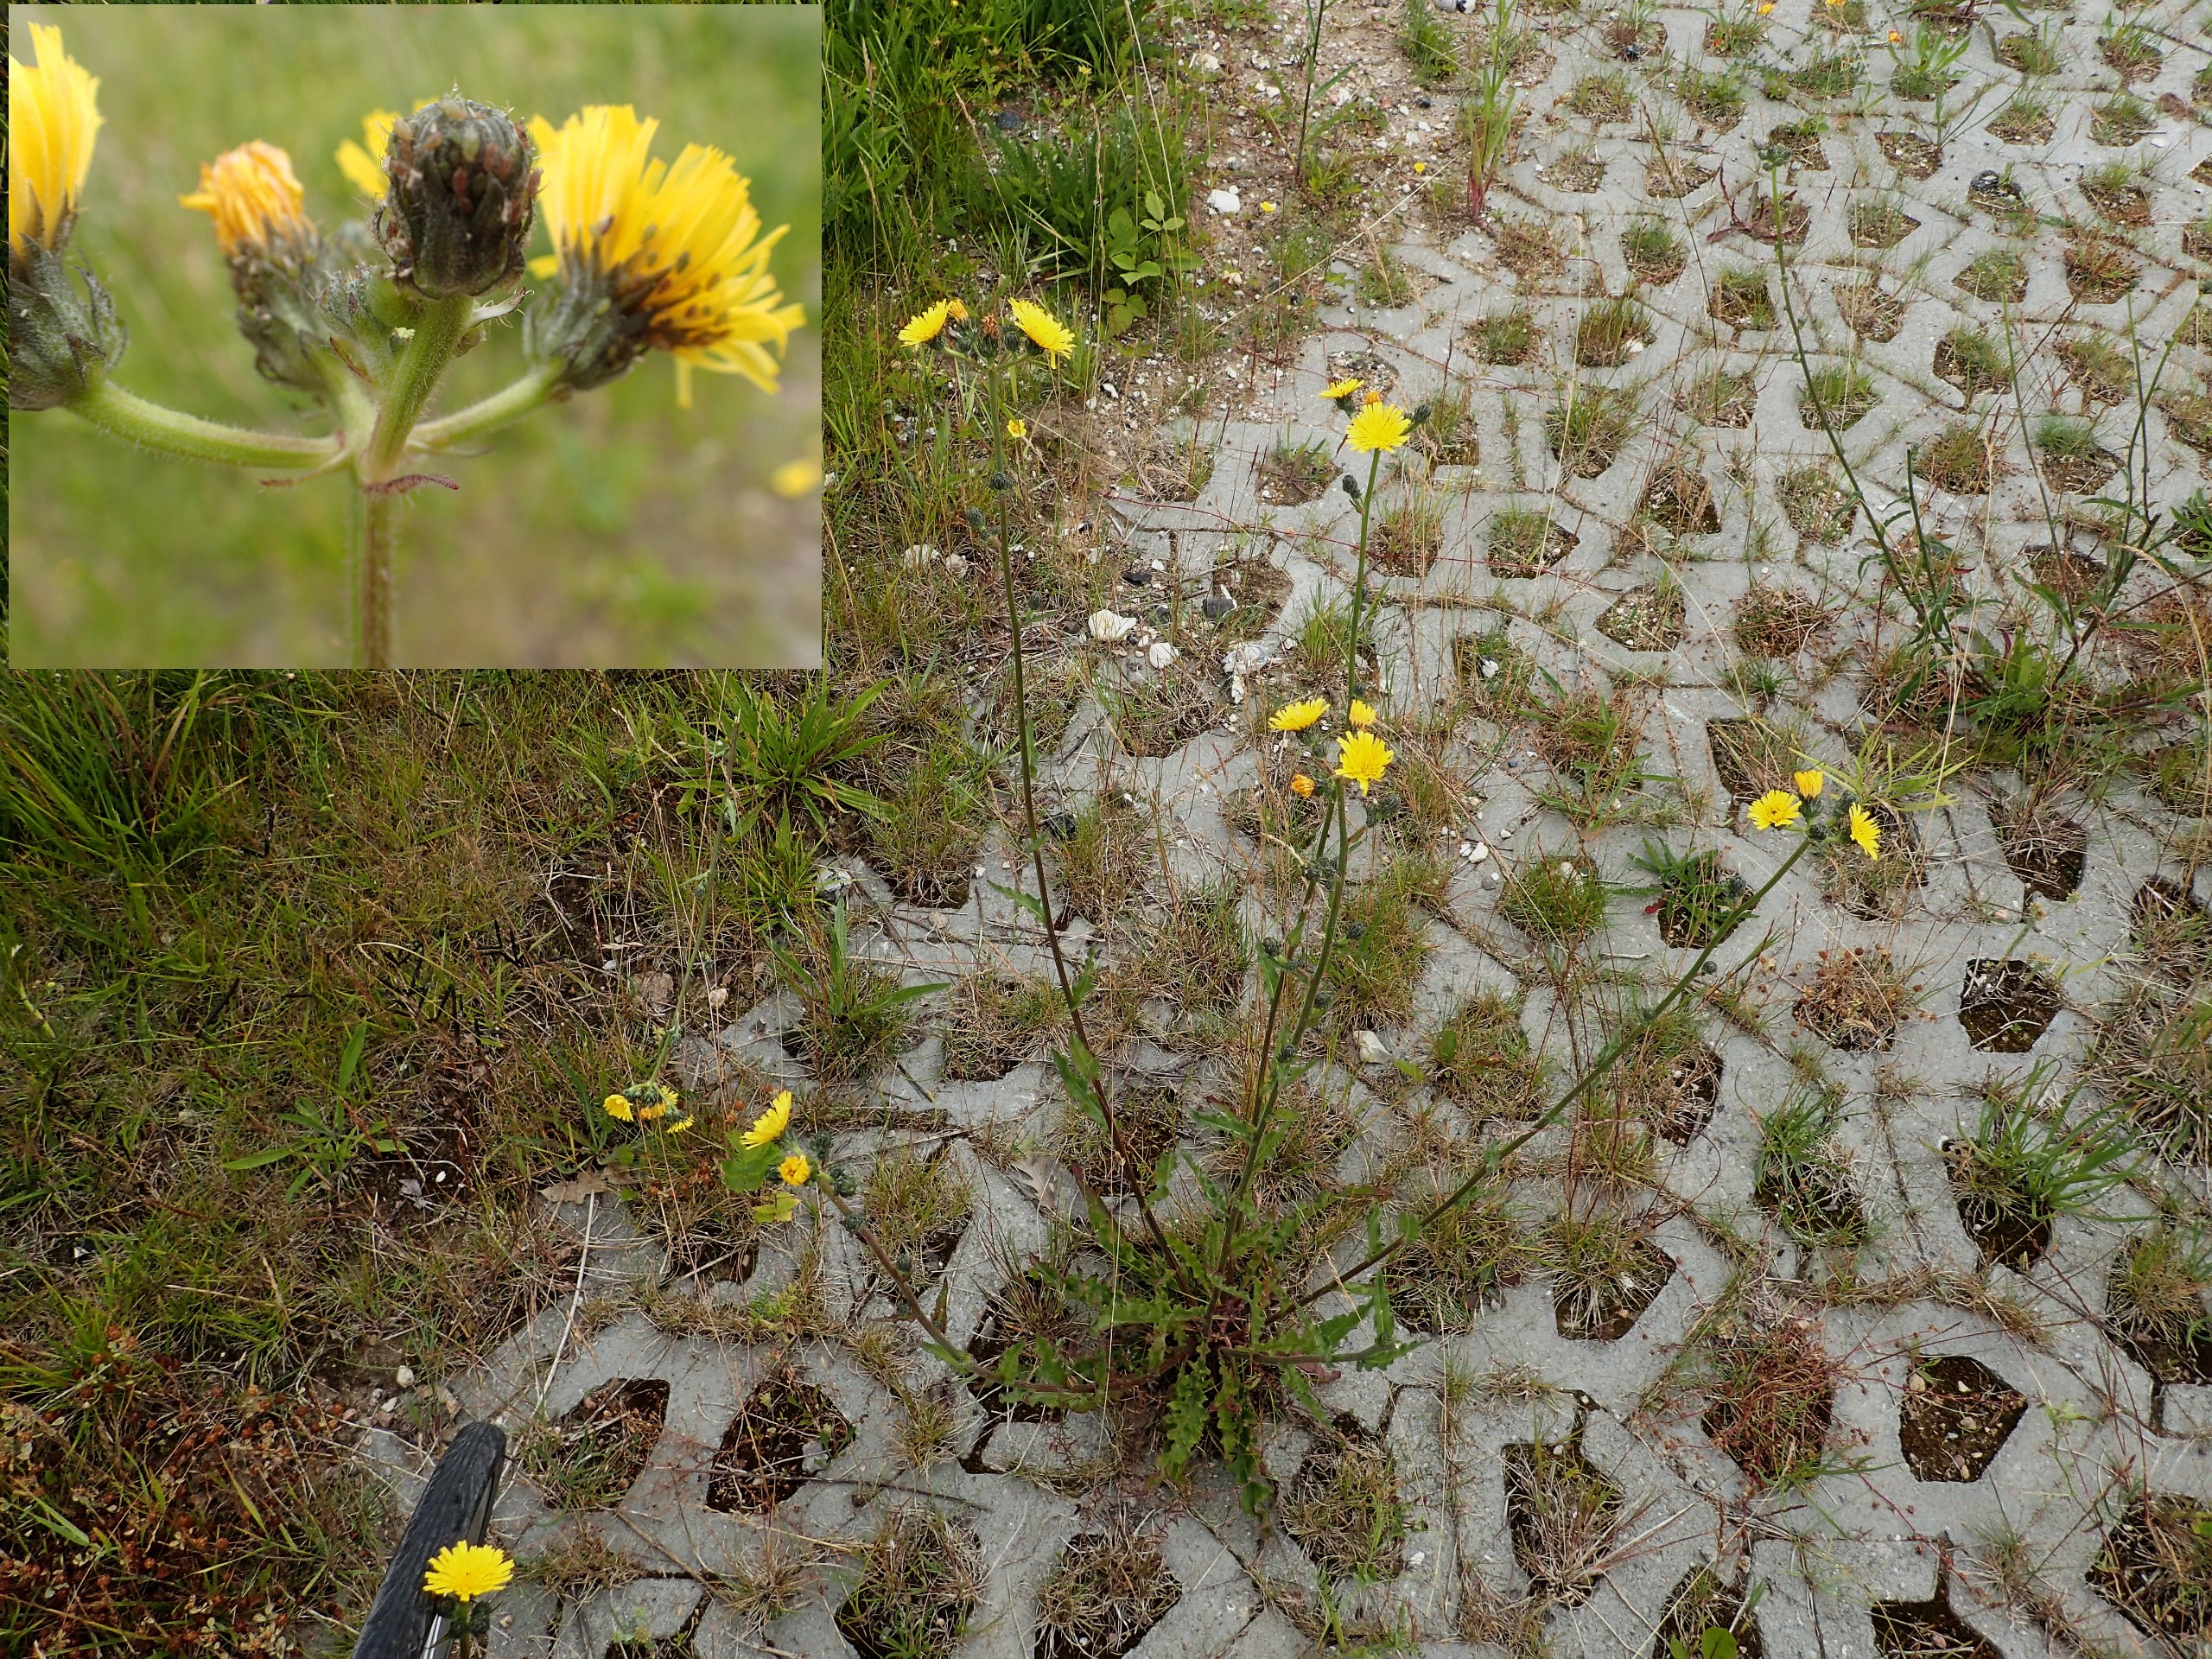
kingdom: Plantae
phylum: Tracheophyta
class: Magnoliopsida
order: Asterales
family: Asteraceae
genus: Picris
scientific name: Picris hieracioides
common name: Ru bittermælk
